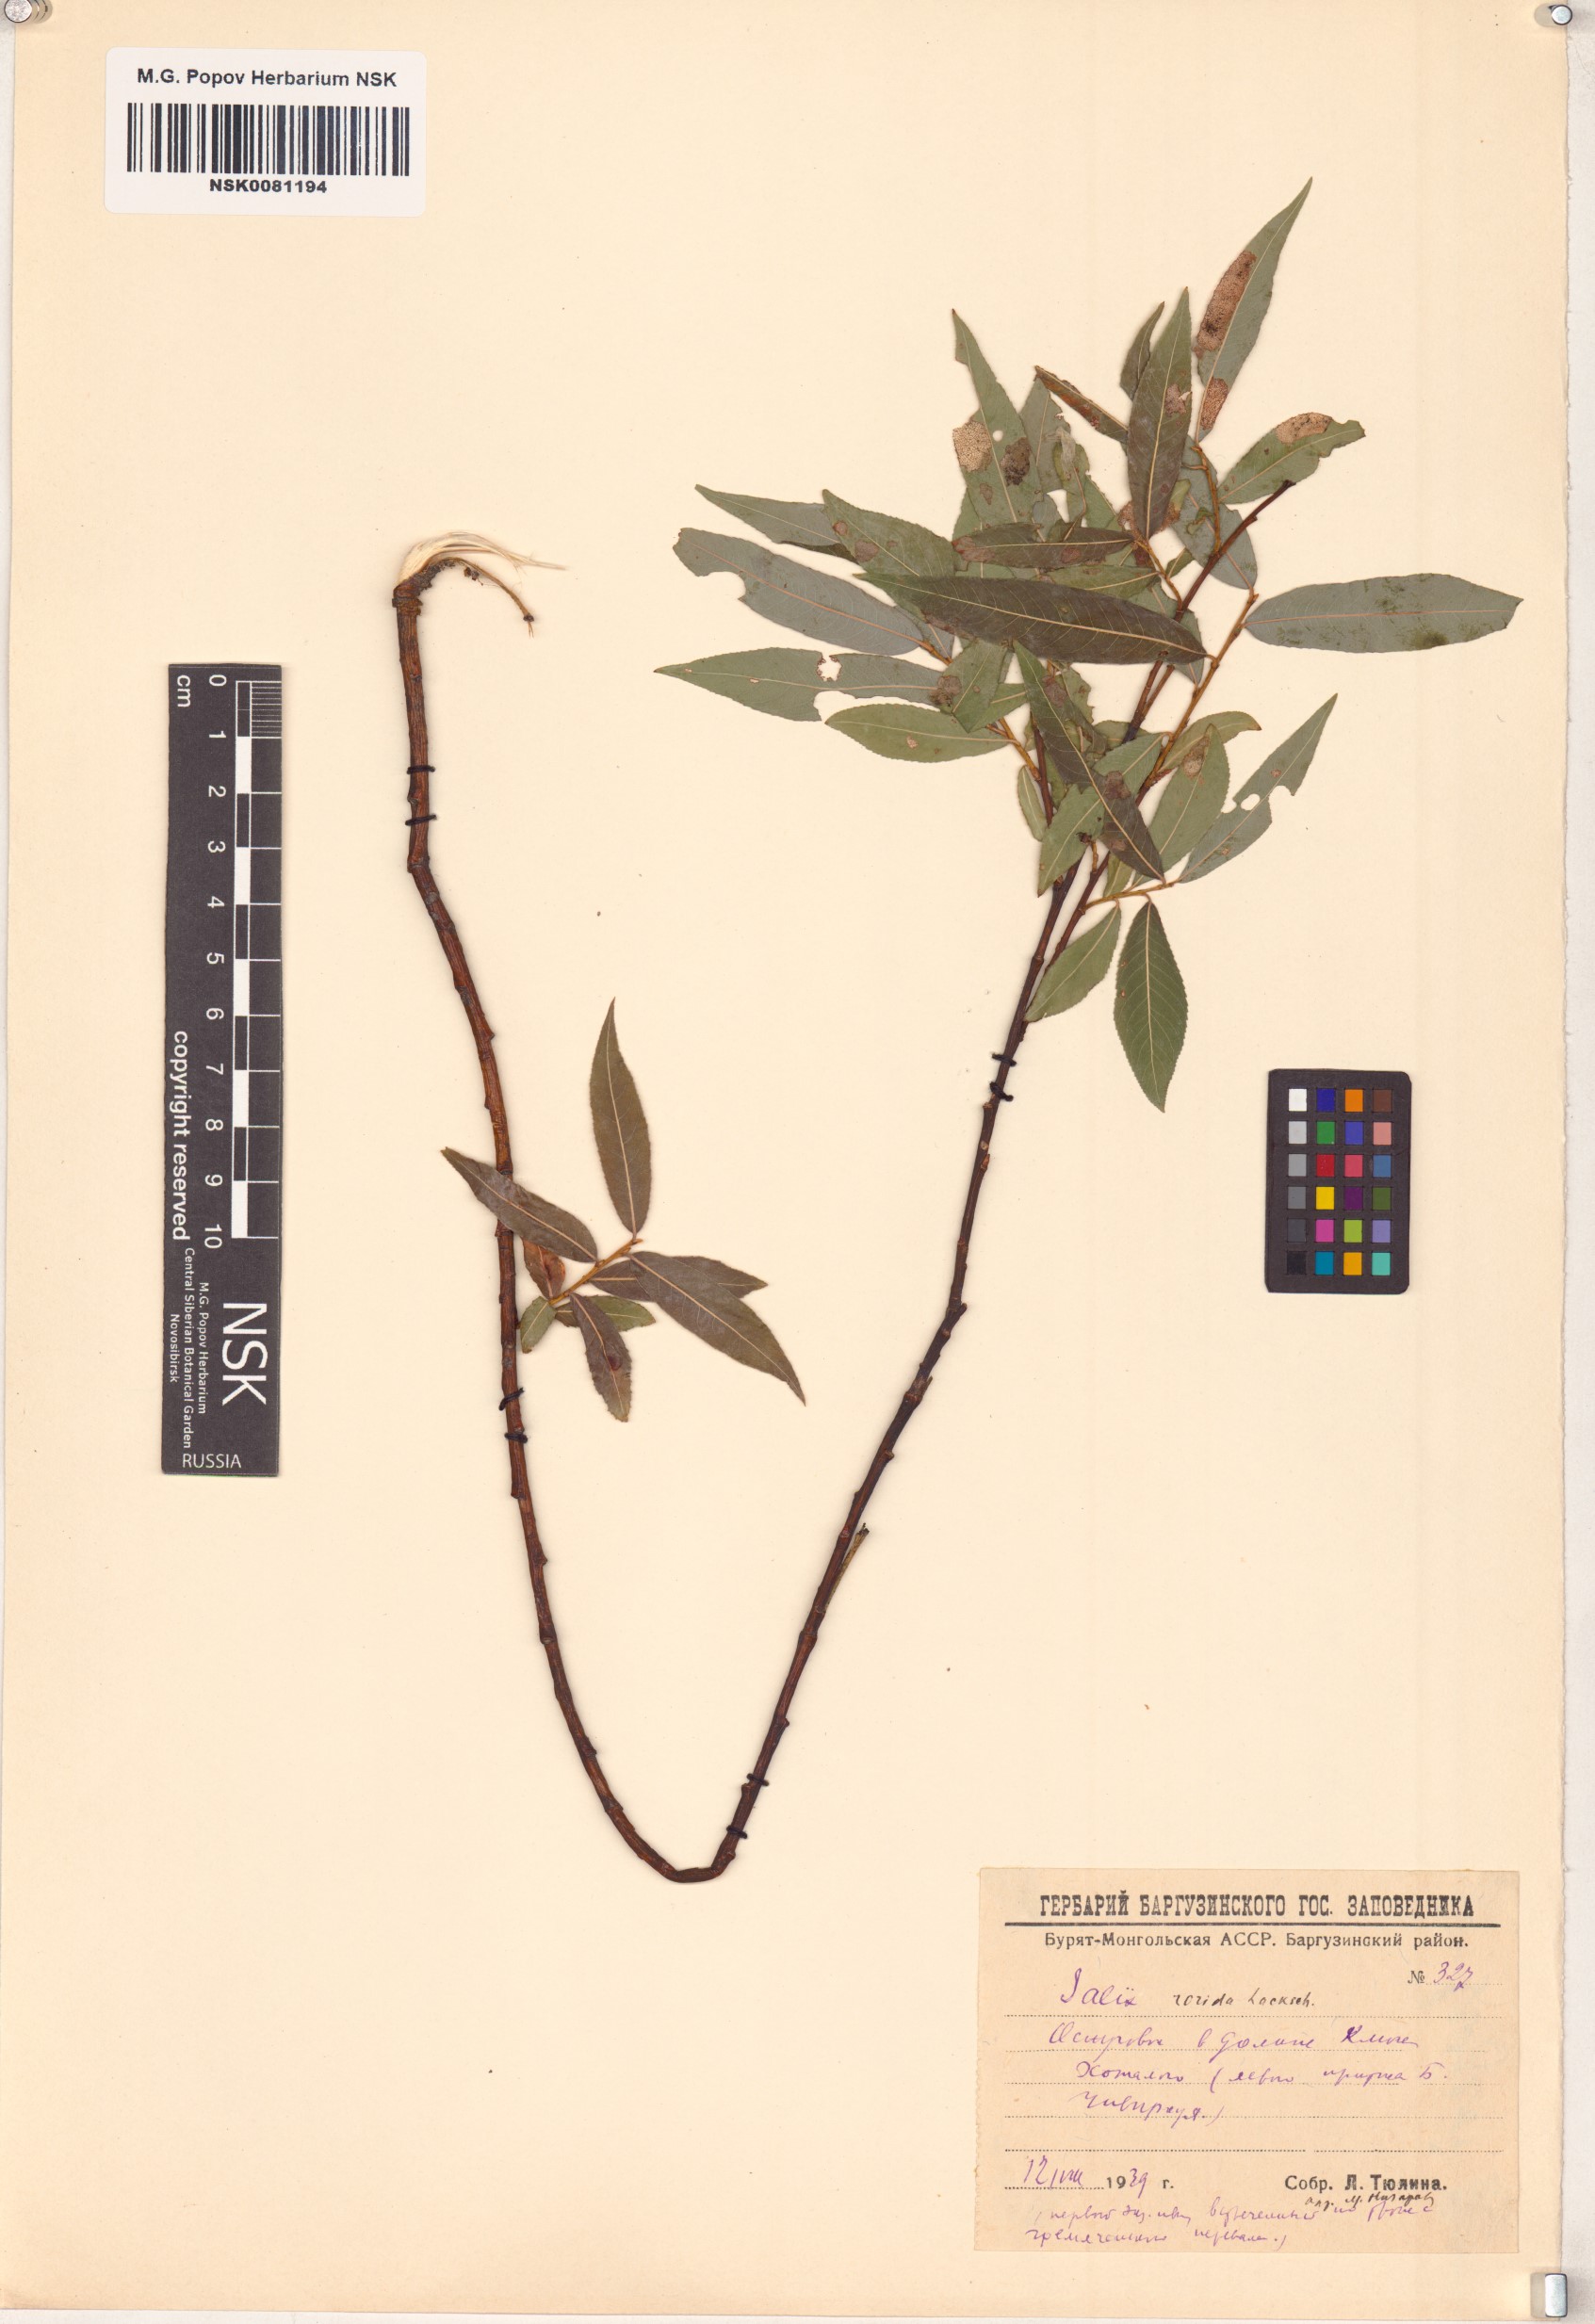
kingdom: Plantae
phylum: Tracheophyta
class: Magnoliopsida
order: Malpighiales
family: Salicaceae
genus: Salix
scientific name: Salix rorida
